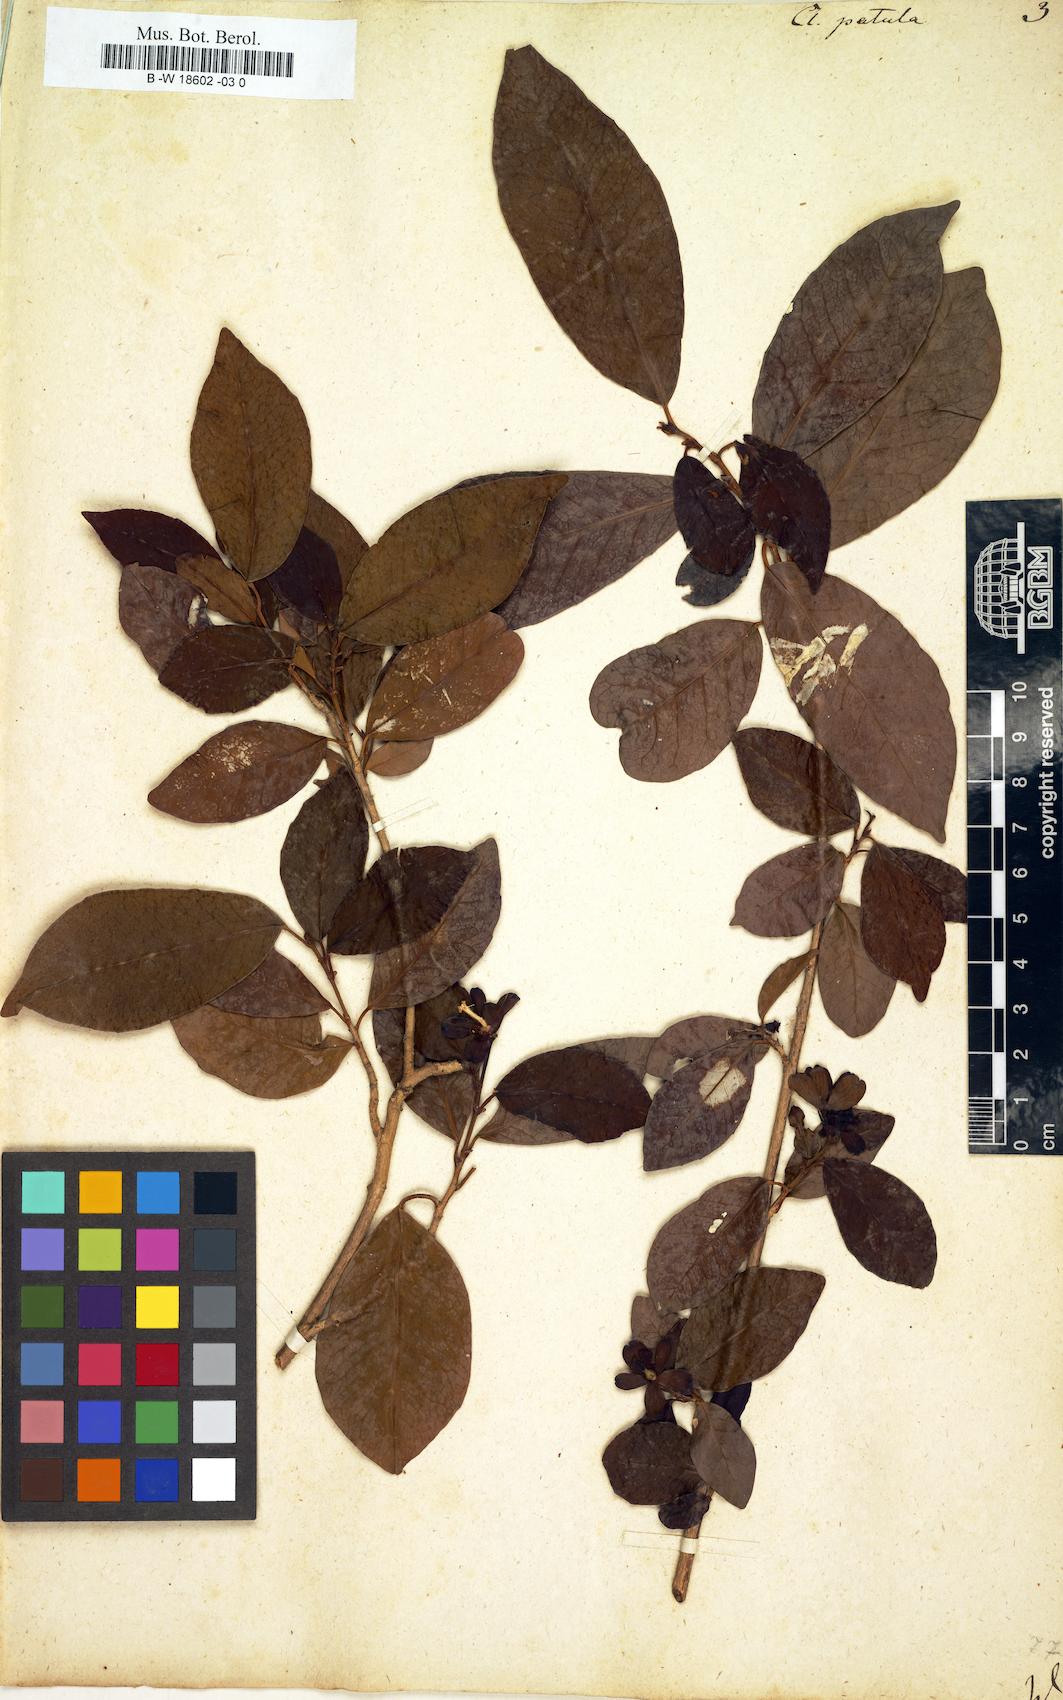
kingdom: Plantae
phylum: Tracheophyta
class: Magnoliopsida
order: Malpighiales
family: Peraceae
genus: Clutia
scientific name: Clutia
